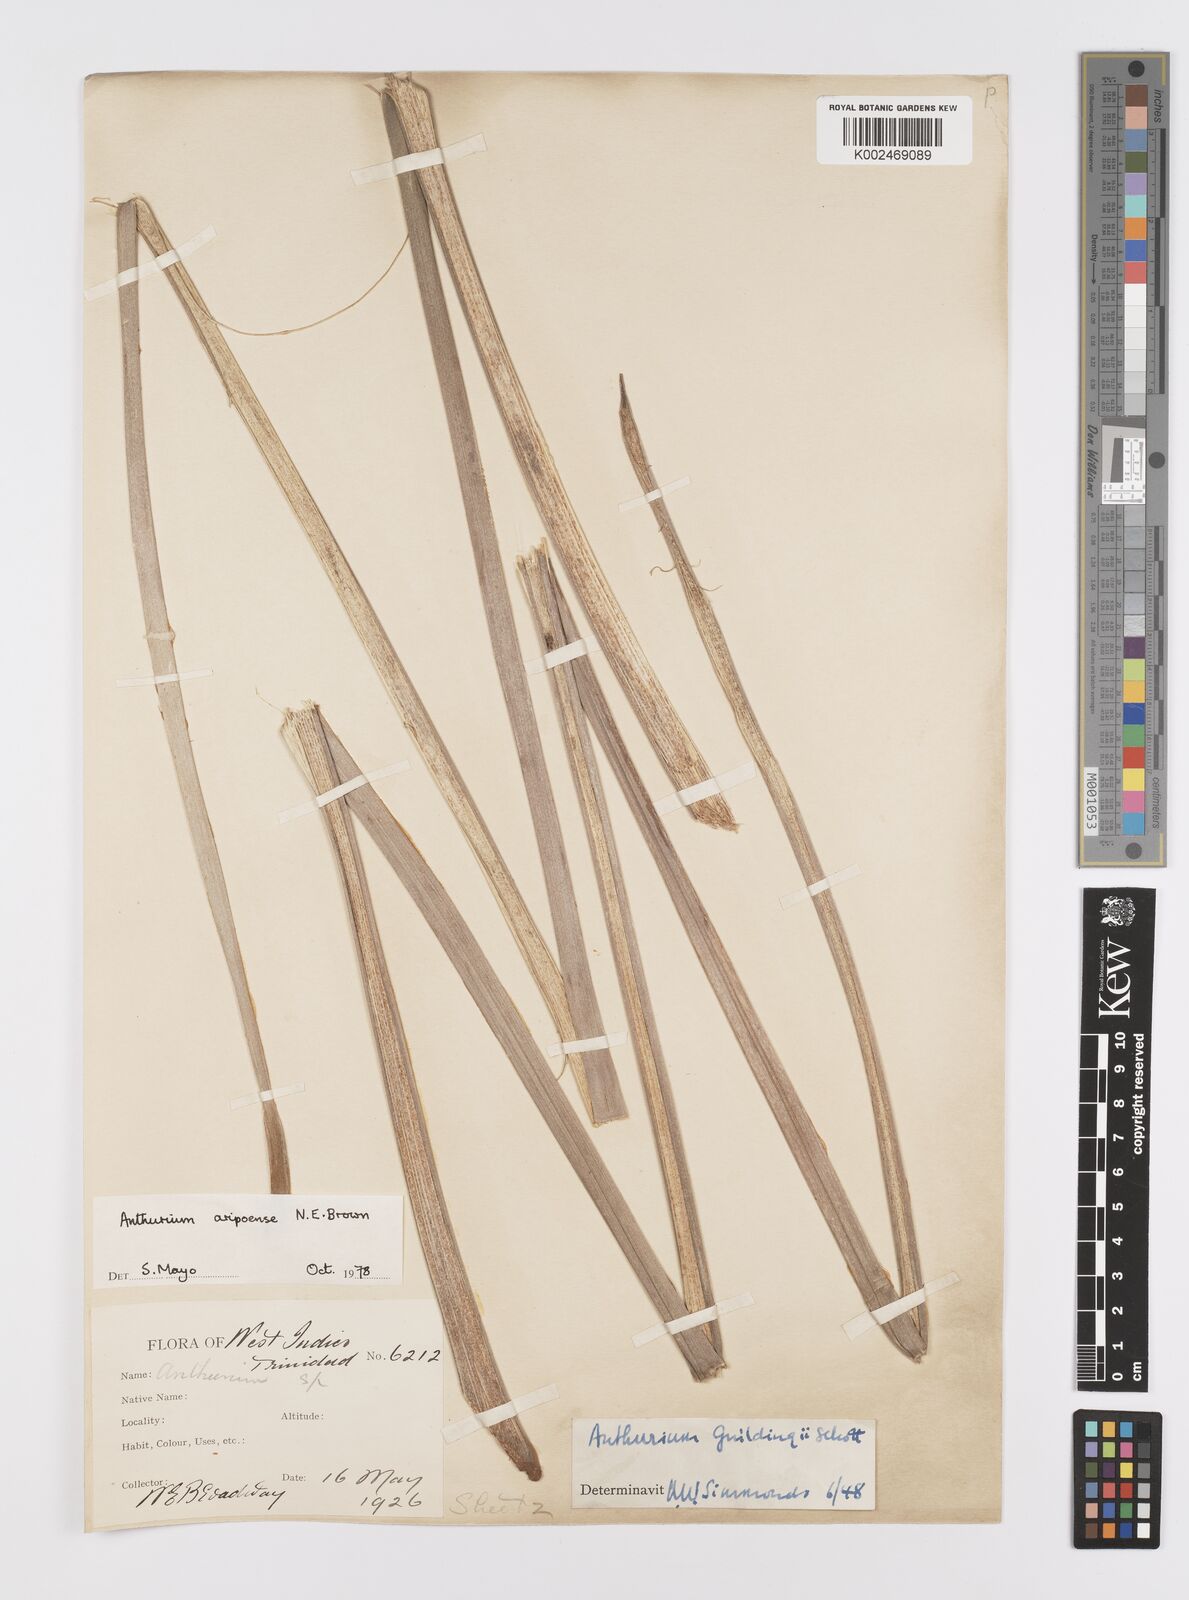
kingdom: Plantae
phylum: Tracheophyta
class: Liliopsida
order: Alismatales
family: Araceae
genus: Anthurium
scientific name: Anthurium aripoense
